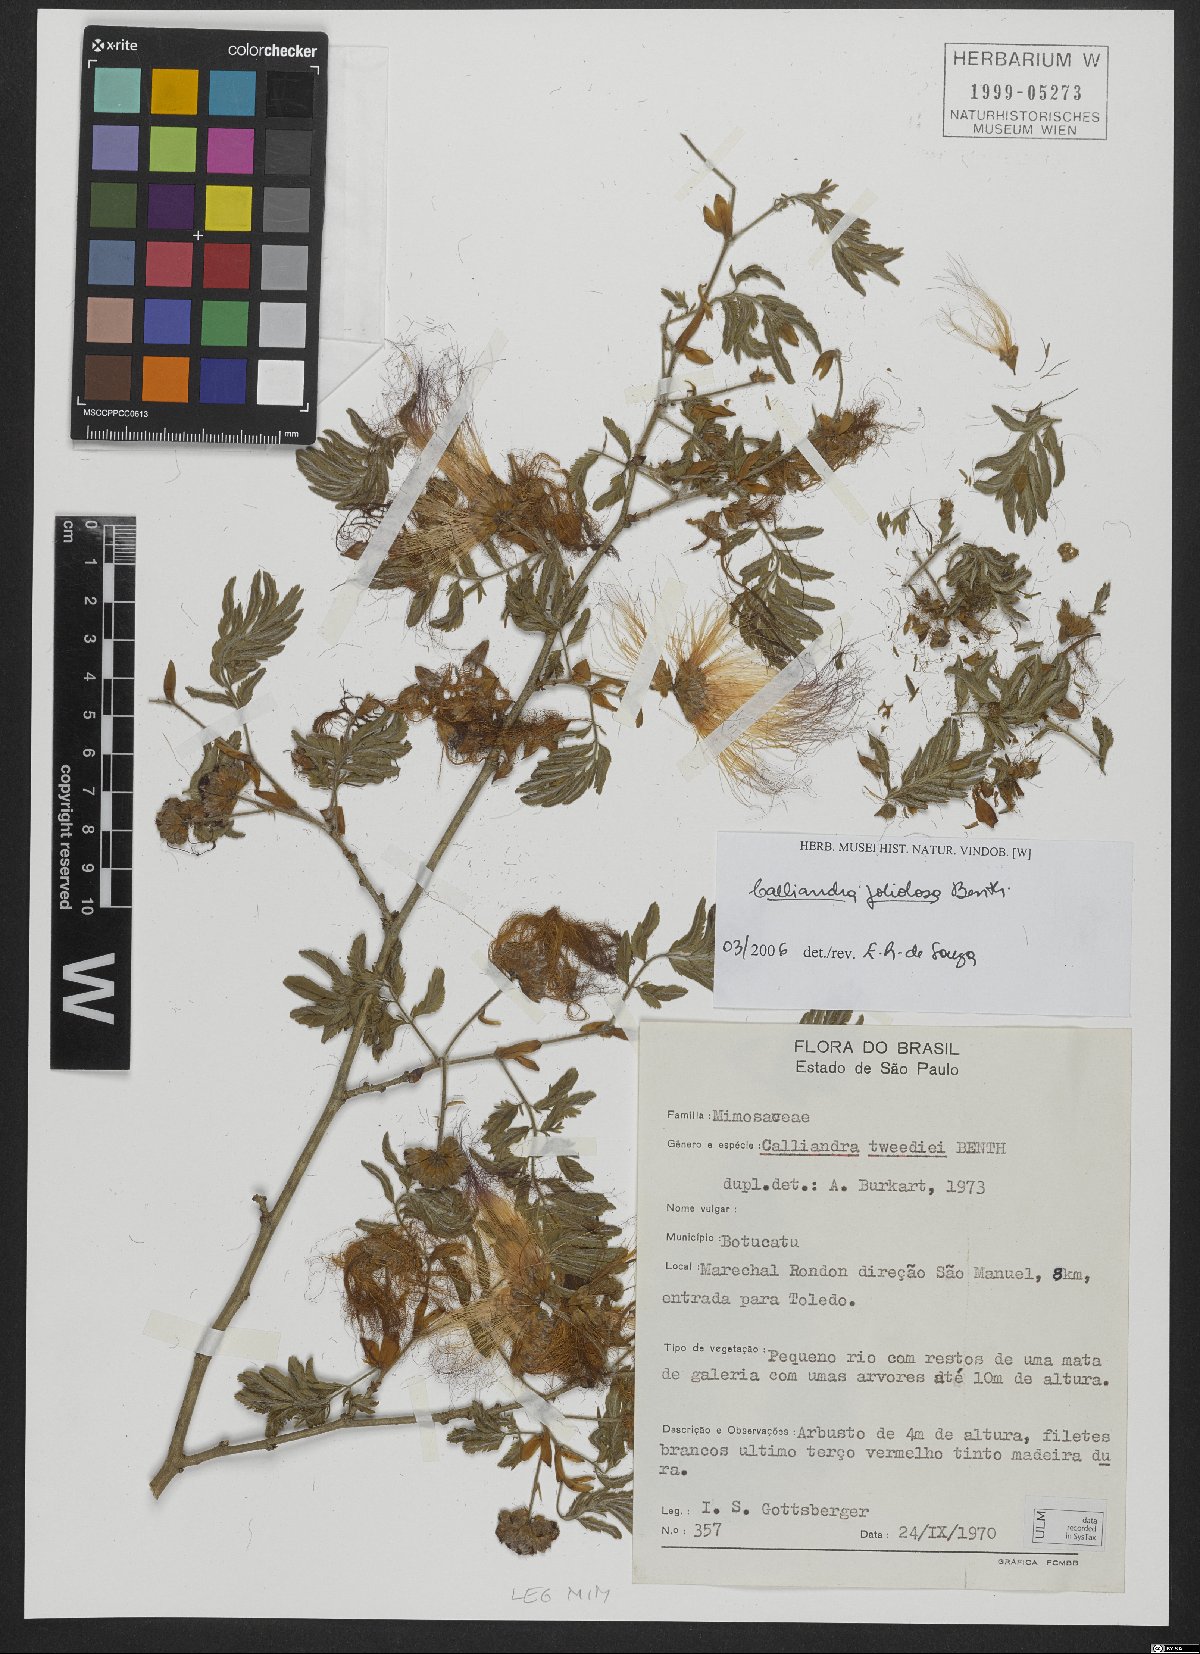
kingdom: Plantae
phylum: Tracheophyta
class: Magnoliopsida
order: Fabales
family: Fabaceae
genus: Calliandra
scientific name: Calliandra foliolosa
